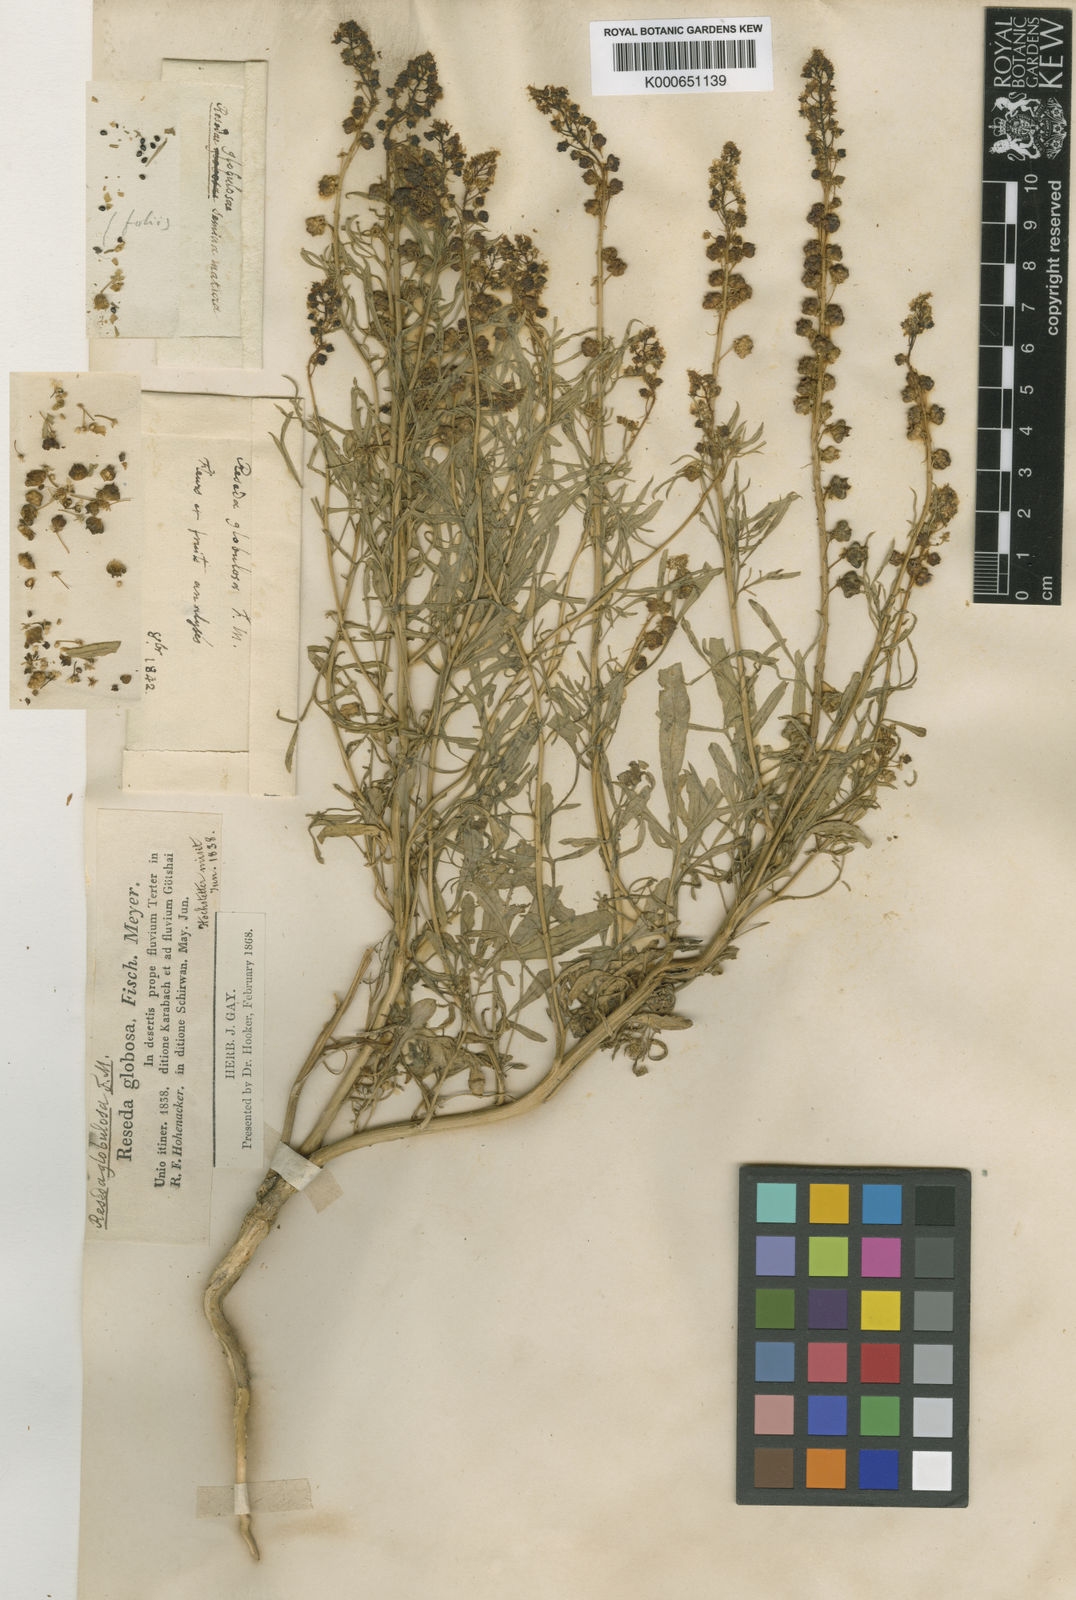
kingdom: Plantae
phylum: Tracheophyta
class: Magnoliopsida
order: Brassicales
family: Resedaceae
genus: Reseda
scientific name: Reseda globulosa
